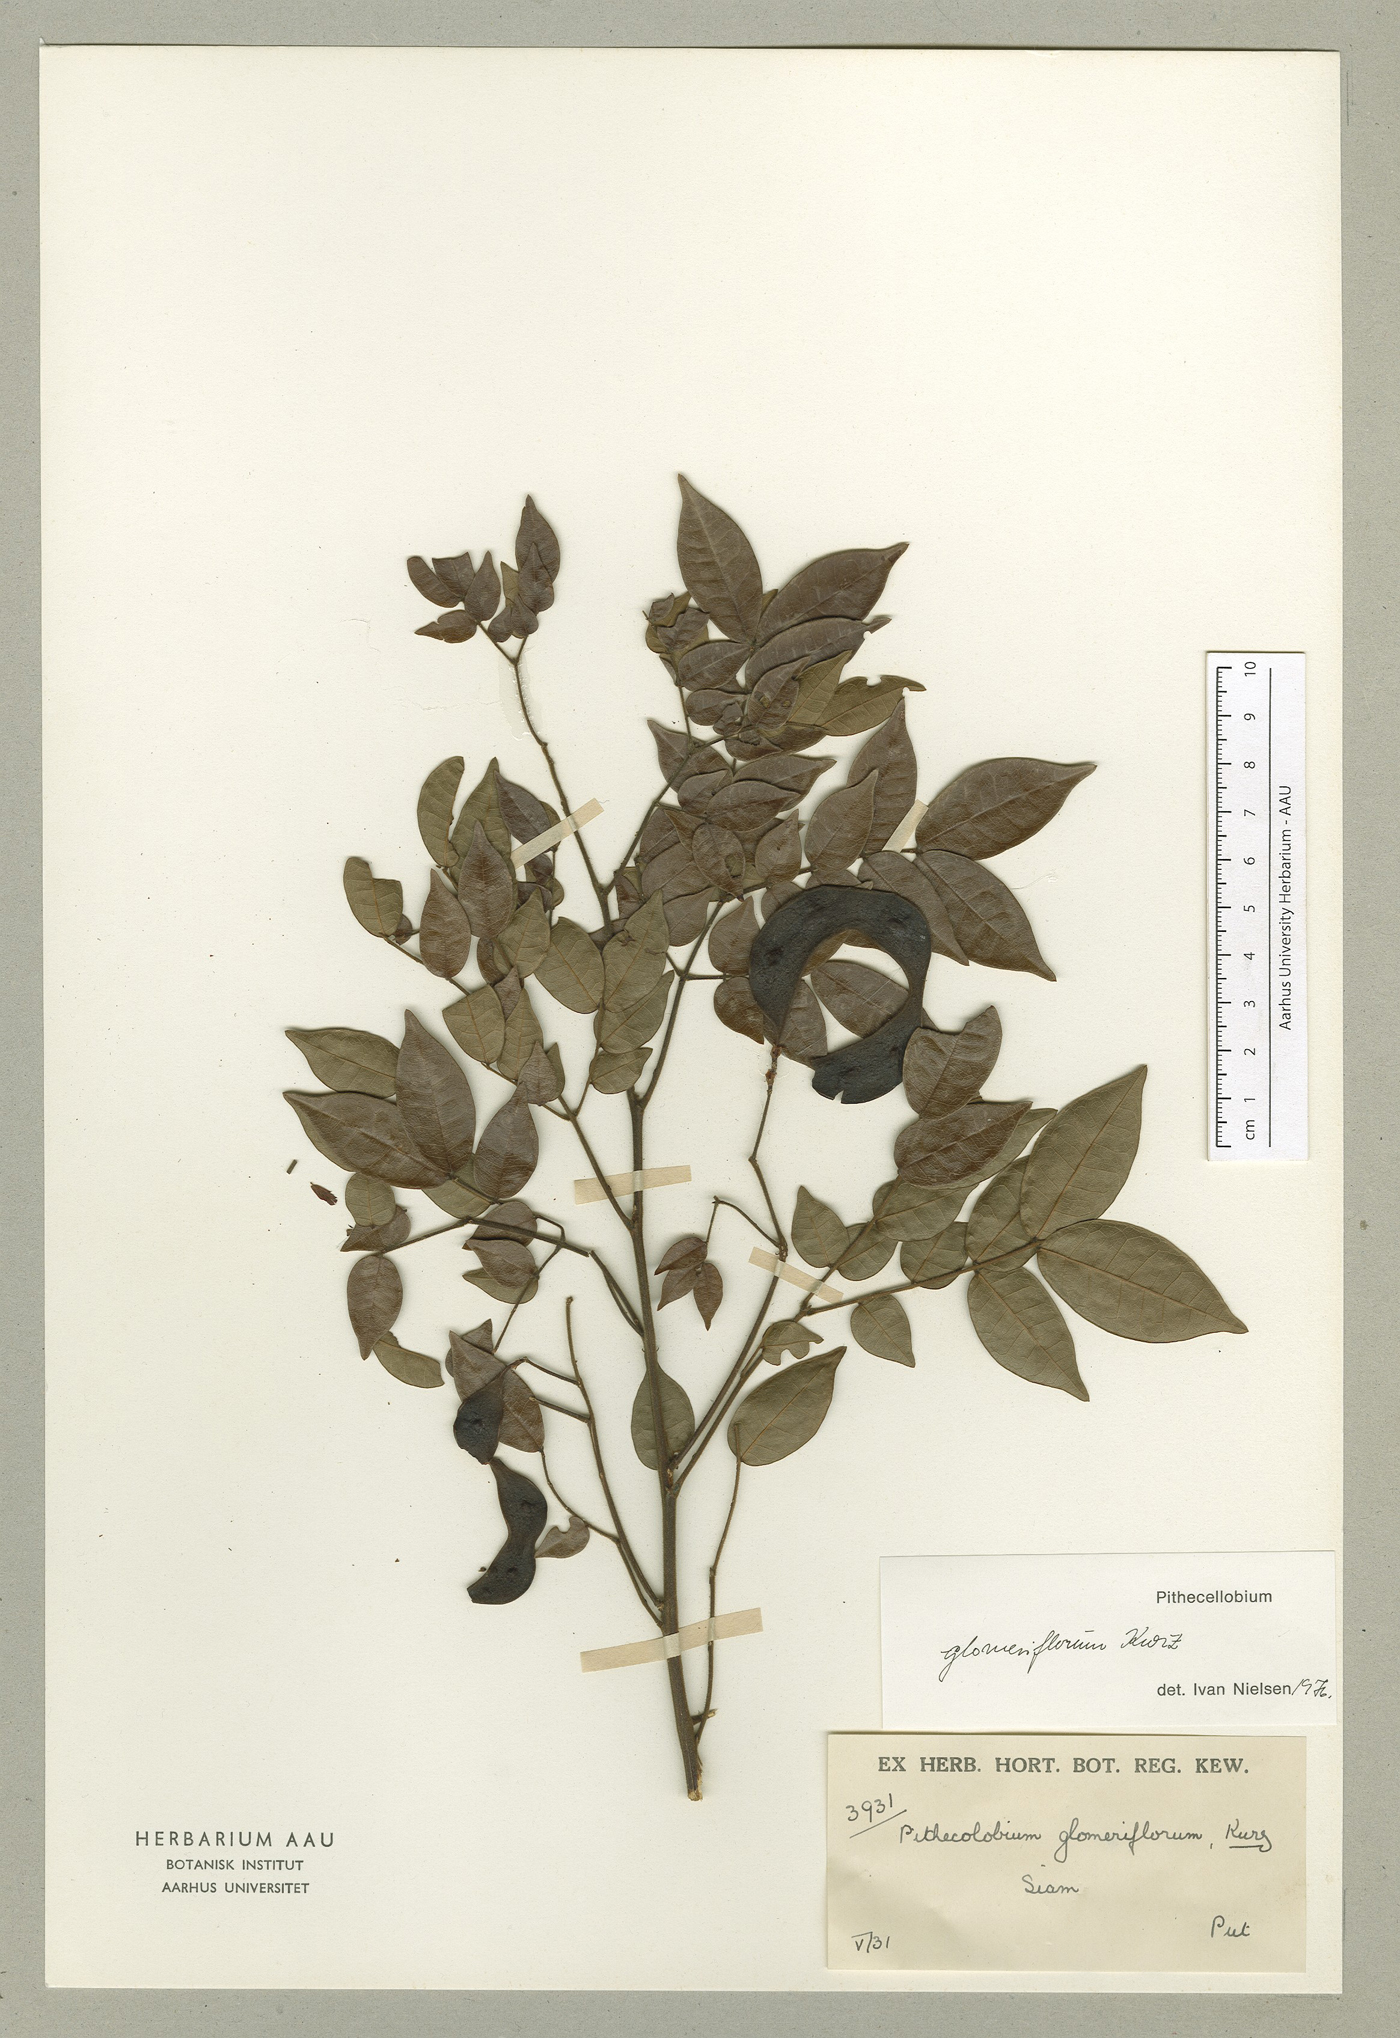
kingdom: Plantae
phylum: Tracheophyta
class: Magnoliopsida
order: Fabales
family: Fabaceae
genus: Archidendron
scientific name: Archidendron glomeriflorum
